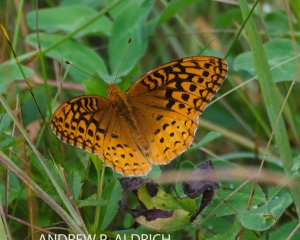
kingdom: Animalia
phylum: Arthropoda
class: Insecta
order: Lepidoptera
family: Nymphalidae
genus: Speyeria
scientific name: Speyeria cybele
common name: Great Spangled Fritillary
